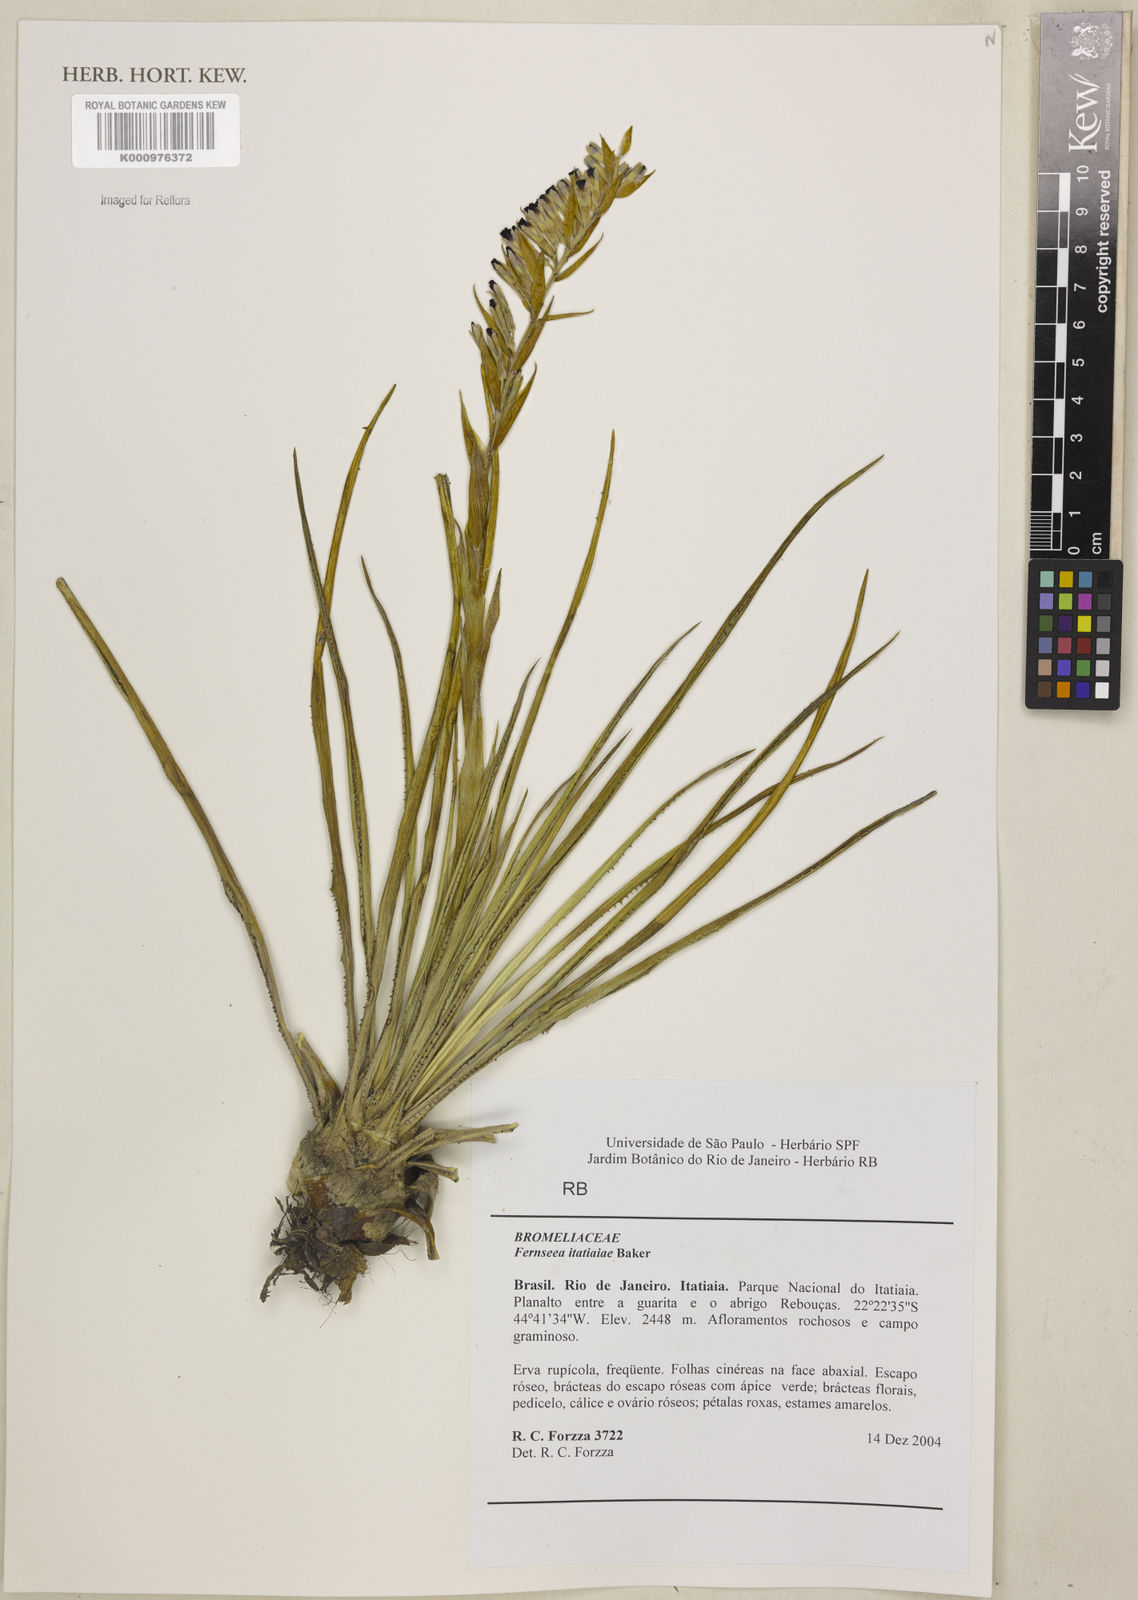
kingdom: Plantae
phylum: Tracheophyta
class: Liliopsida
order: Poales
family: Bromeliaceae
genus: Fernseea
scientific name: Fernseea itatiaiae
